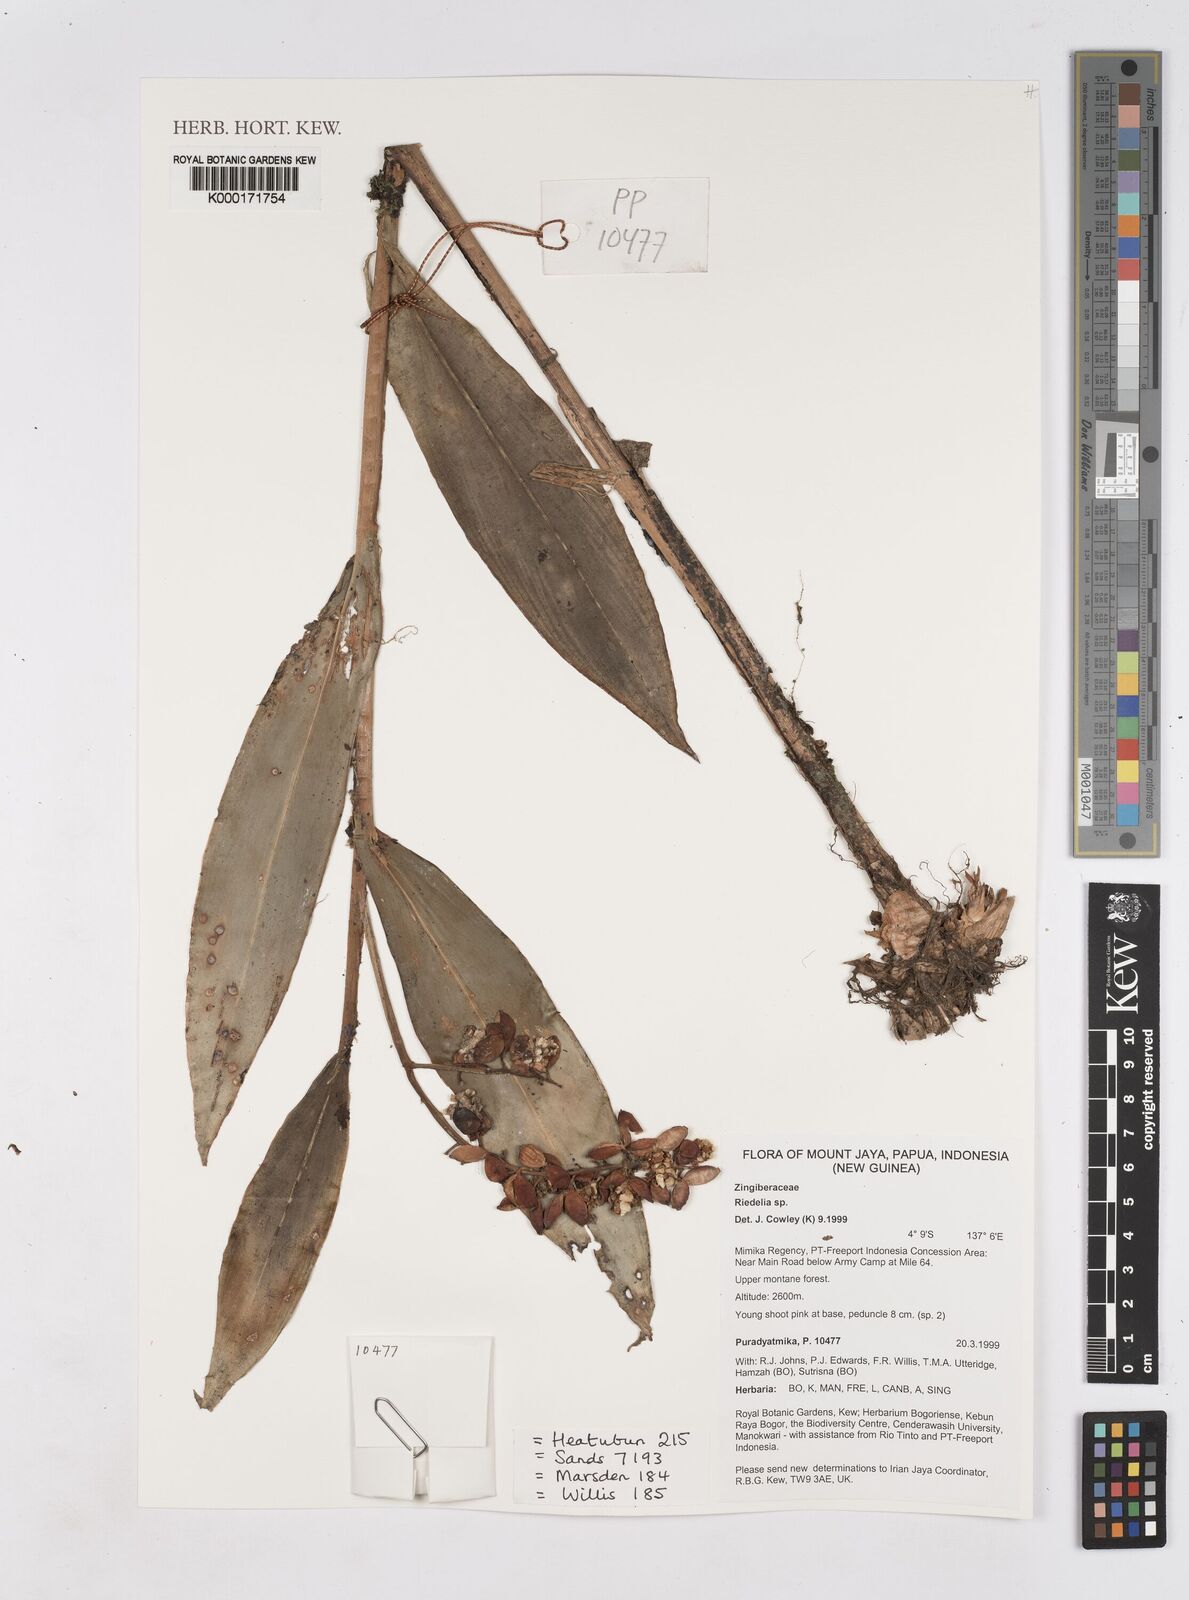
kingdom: Plantae
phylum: Tracheophyta
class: Liliopsida
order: Zingiberales
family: Zingiberaceae
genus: Riedelia
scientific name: Riedelia
